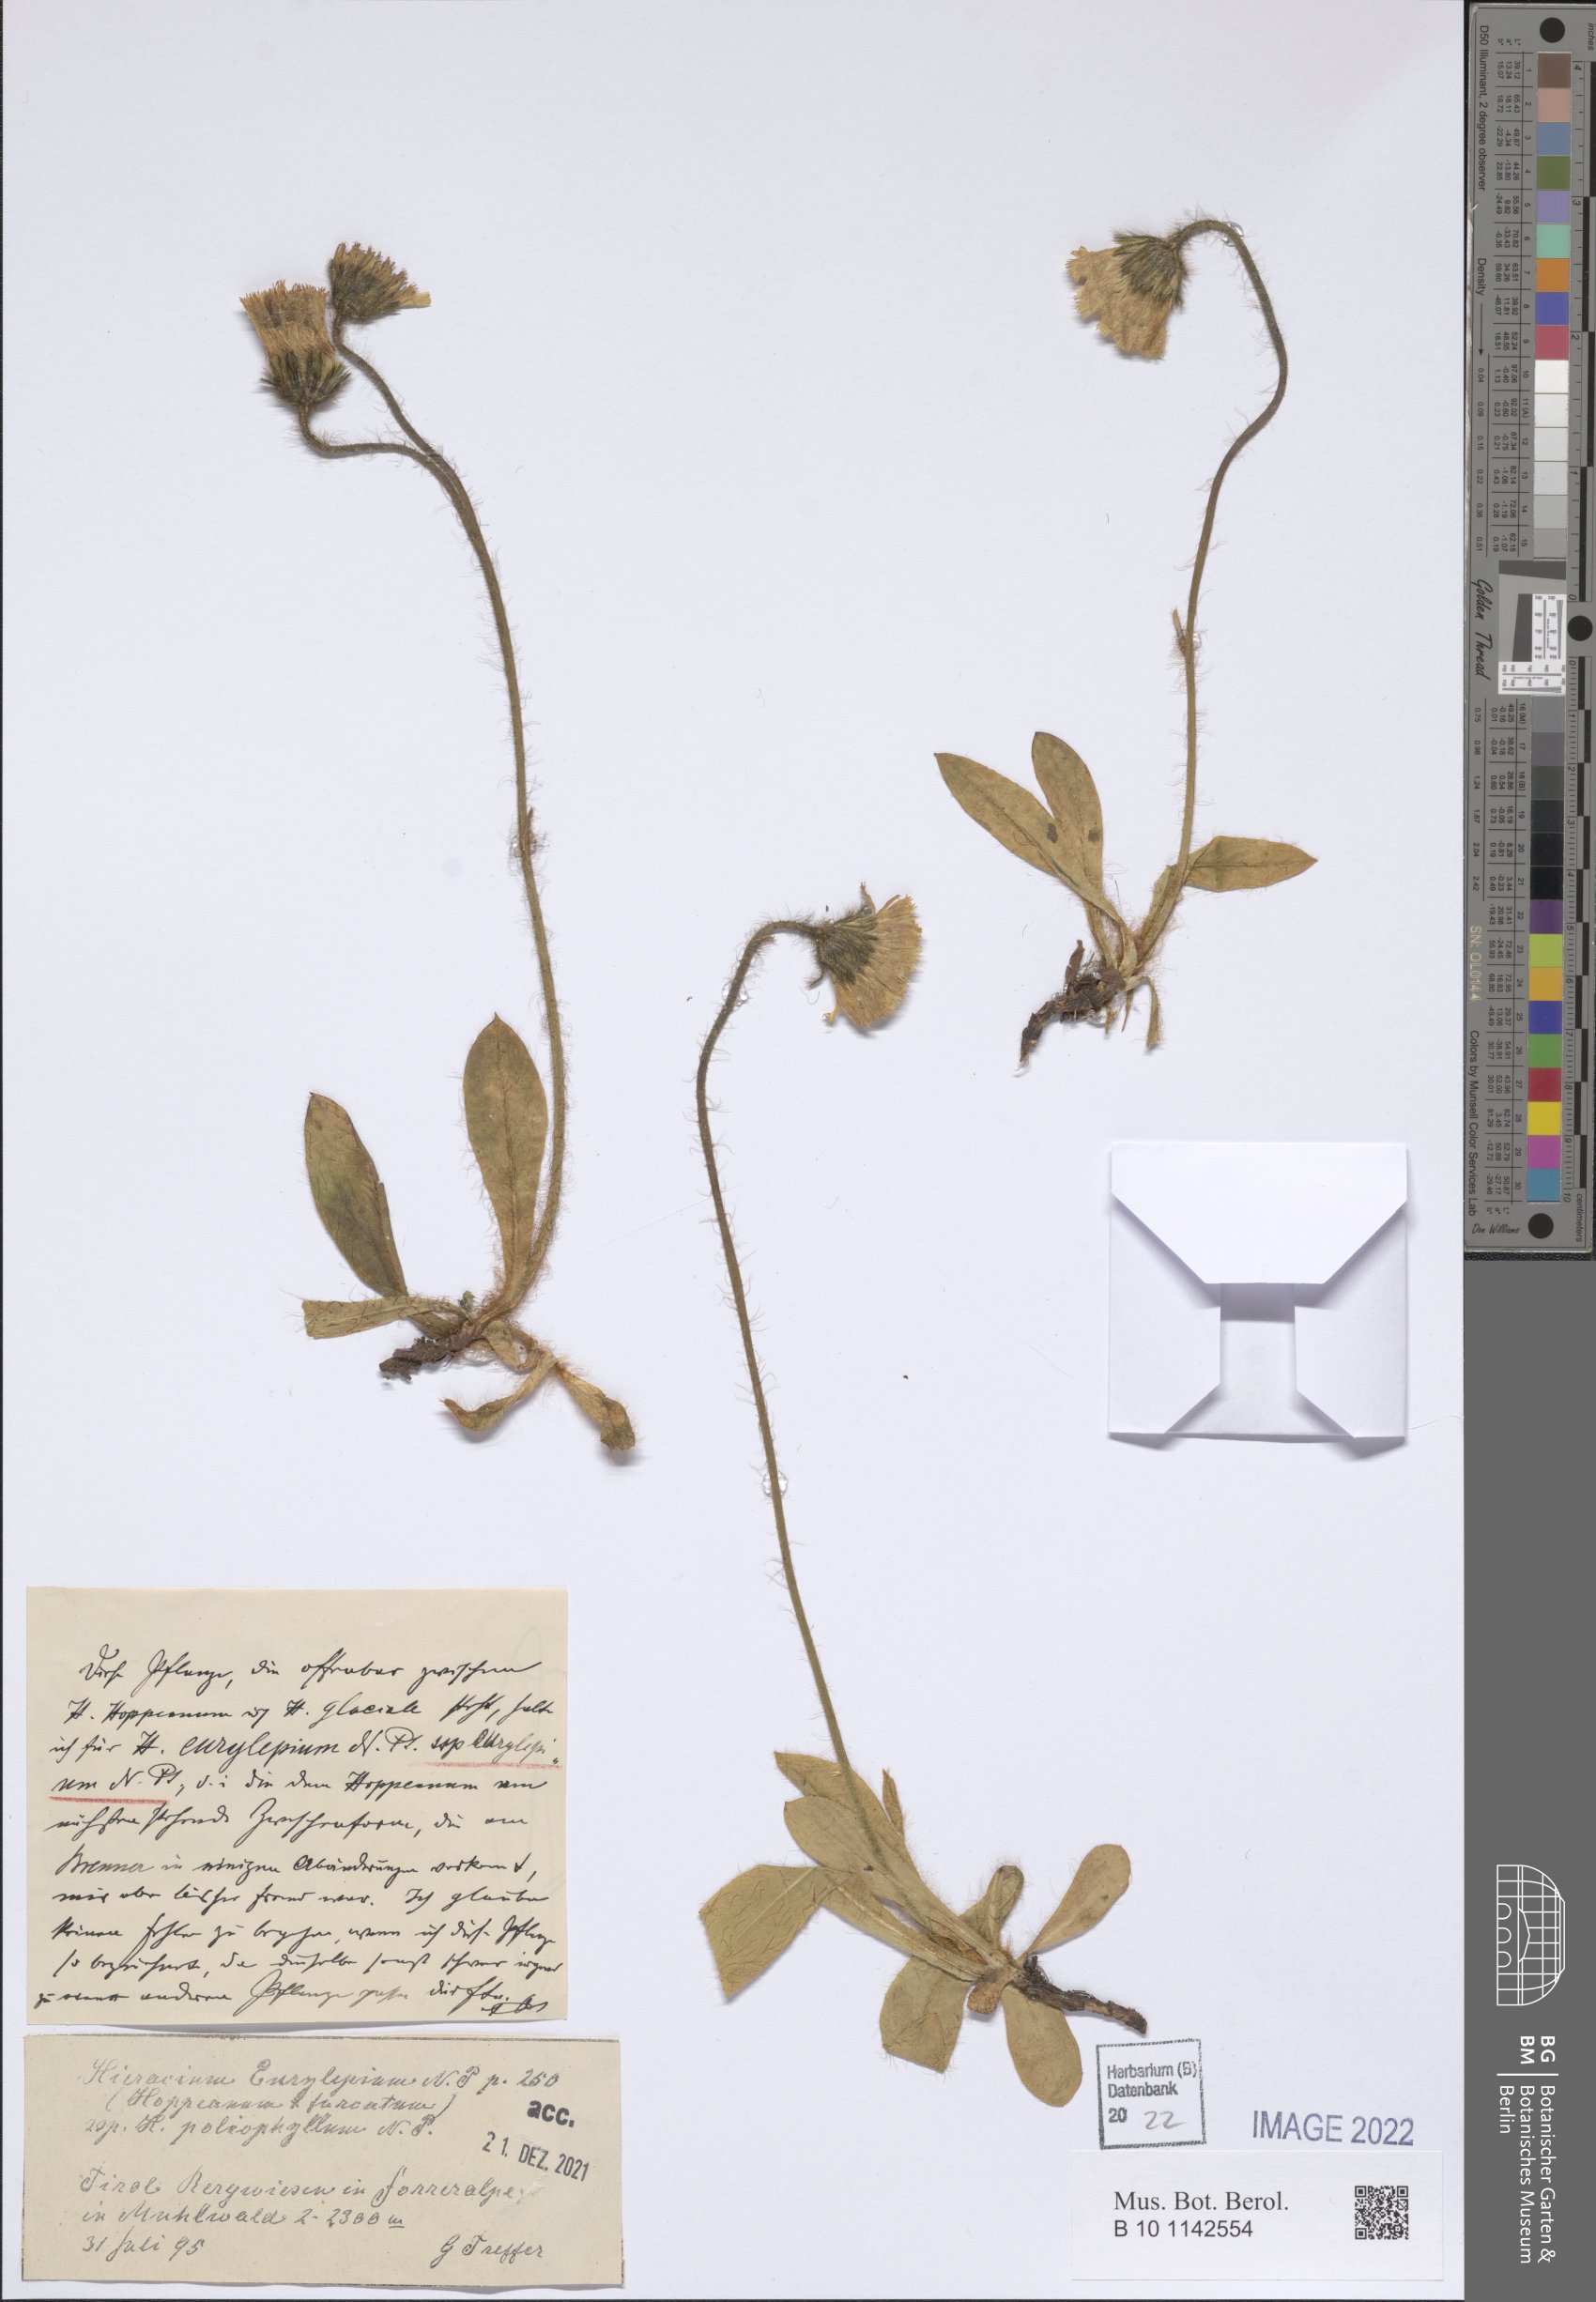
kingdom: Plantae
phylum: Tracheophyta
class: Magnoliopsida
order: Asterales
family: Asteraceae
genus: Pilosella
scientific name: Pilosella pachypila
